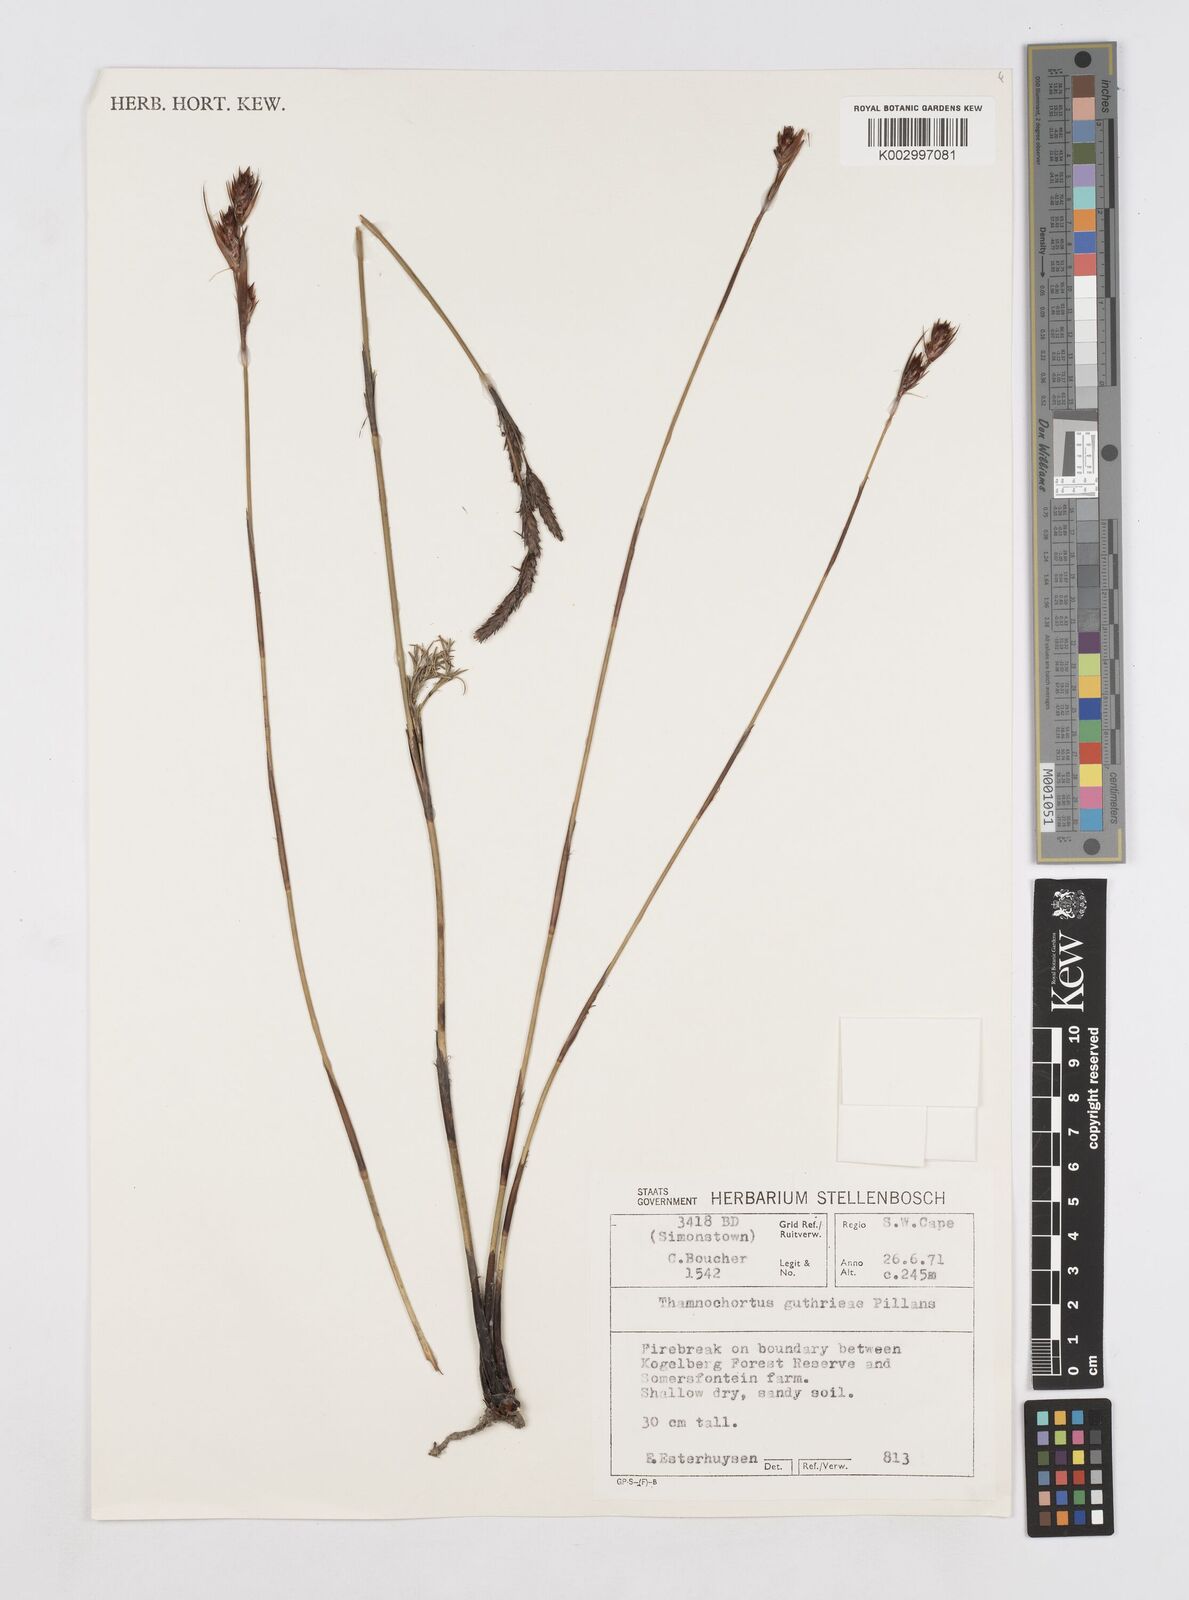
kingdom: Plantae
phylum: Tracheophyta
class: Liliopsida
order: Poales
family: Restionaceae
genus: Thamnochortus
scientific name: Thamnochortus guthrieae
